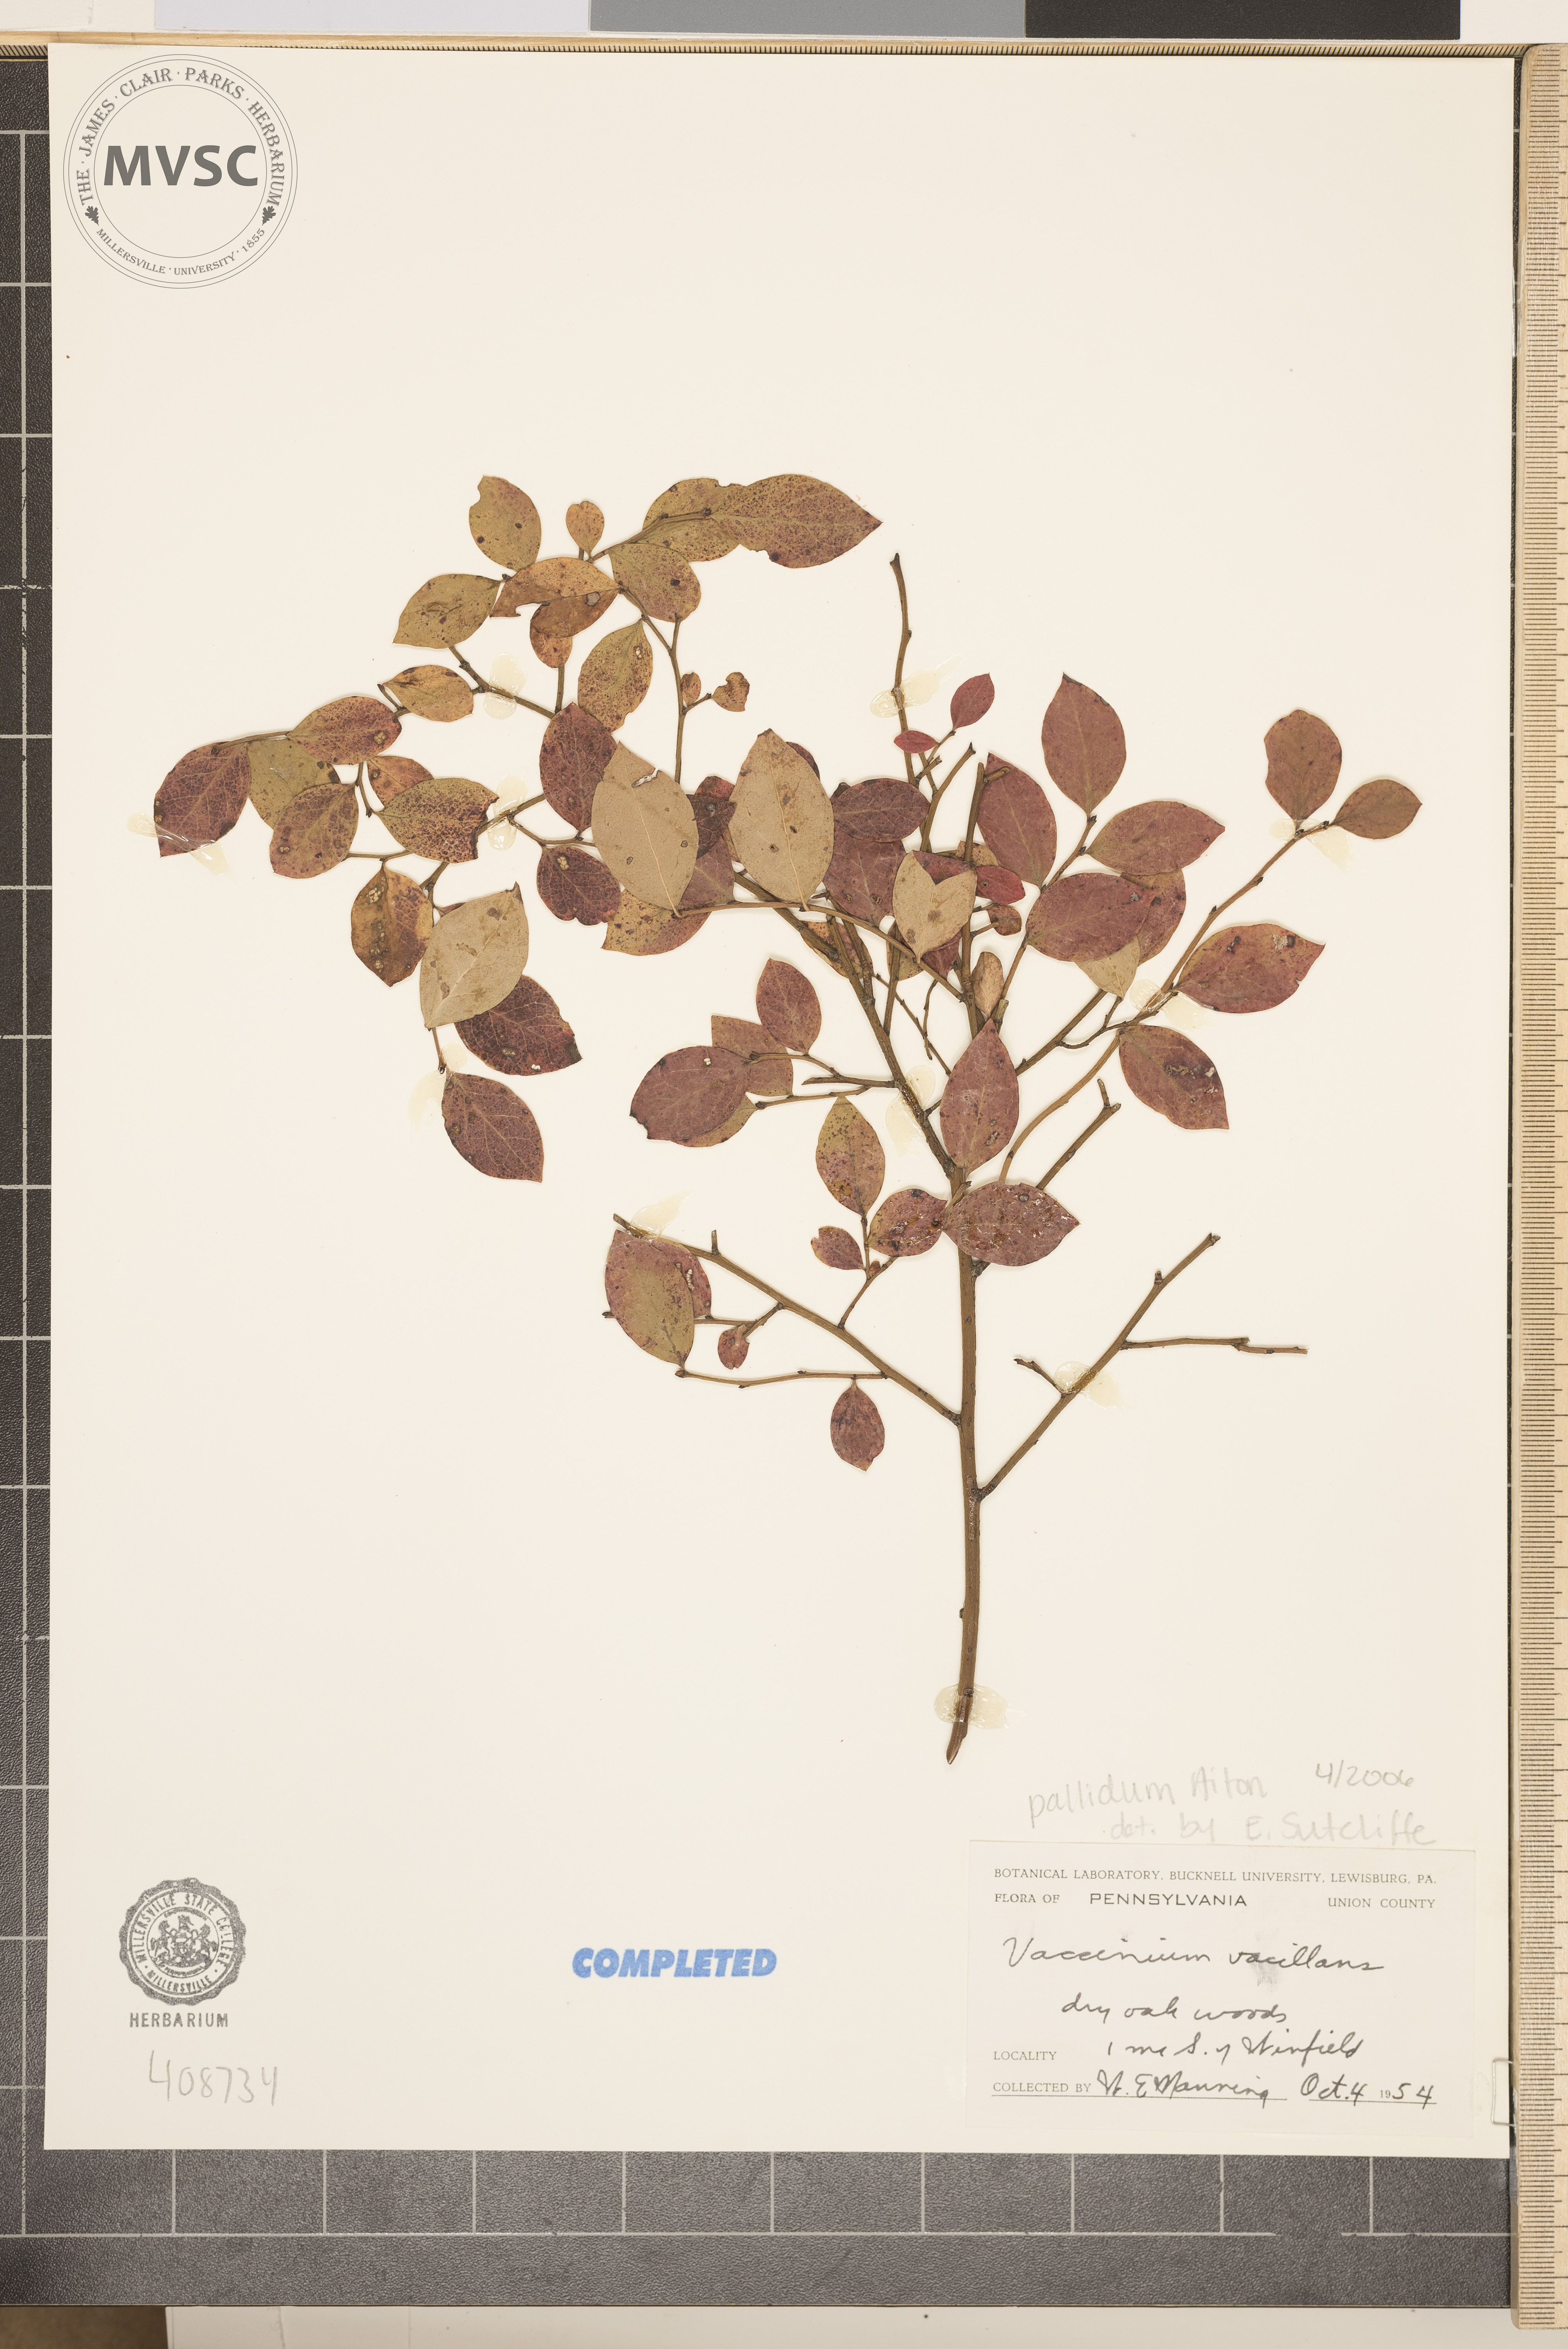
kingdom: Plantae
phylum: Tracheophyta
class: Magnoliopsida
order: Ericales
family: Ericaceae
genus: Vaccinium
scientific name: Vaccinium pallidum
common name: Blue ridge blueberry
